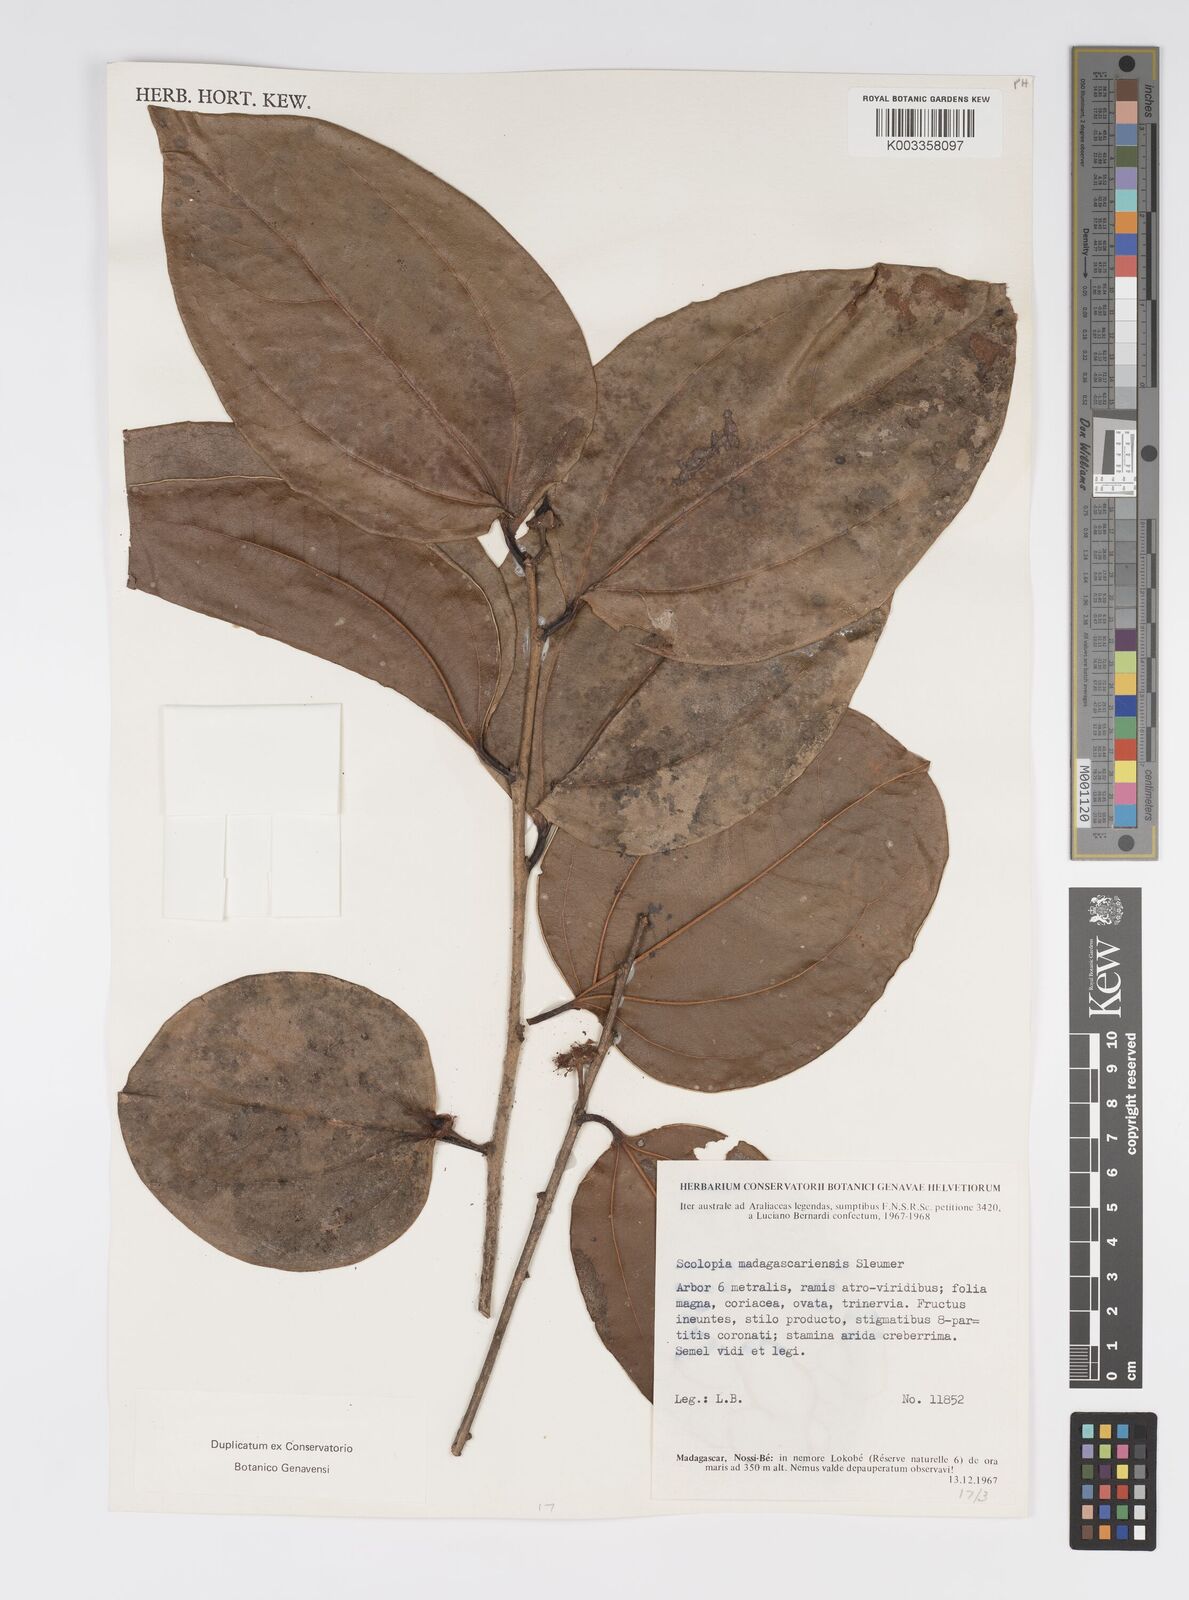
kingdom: Plantae
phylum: Tracheophyta
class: Magnoliopsida
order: Malpighiales
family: Salicaceae
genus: Scolopia
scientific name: Scolopia madagascariensis
